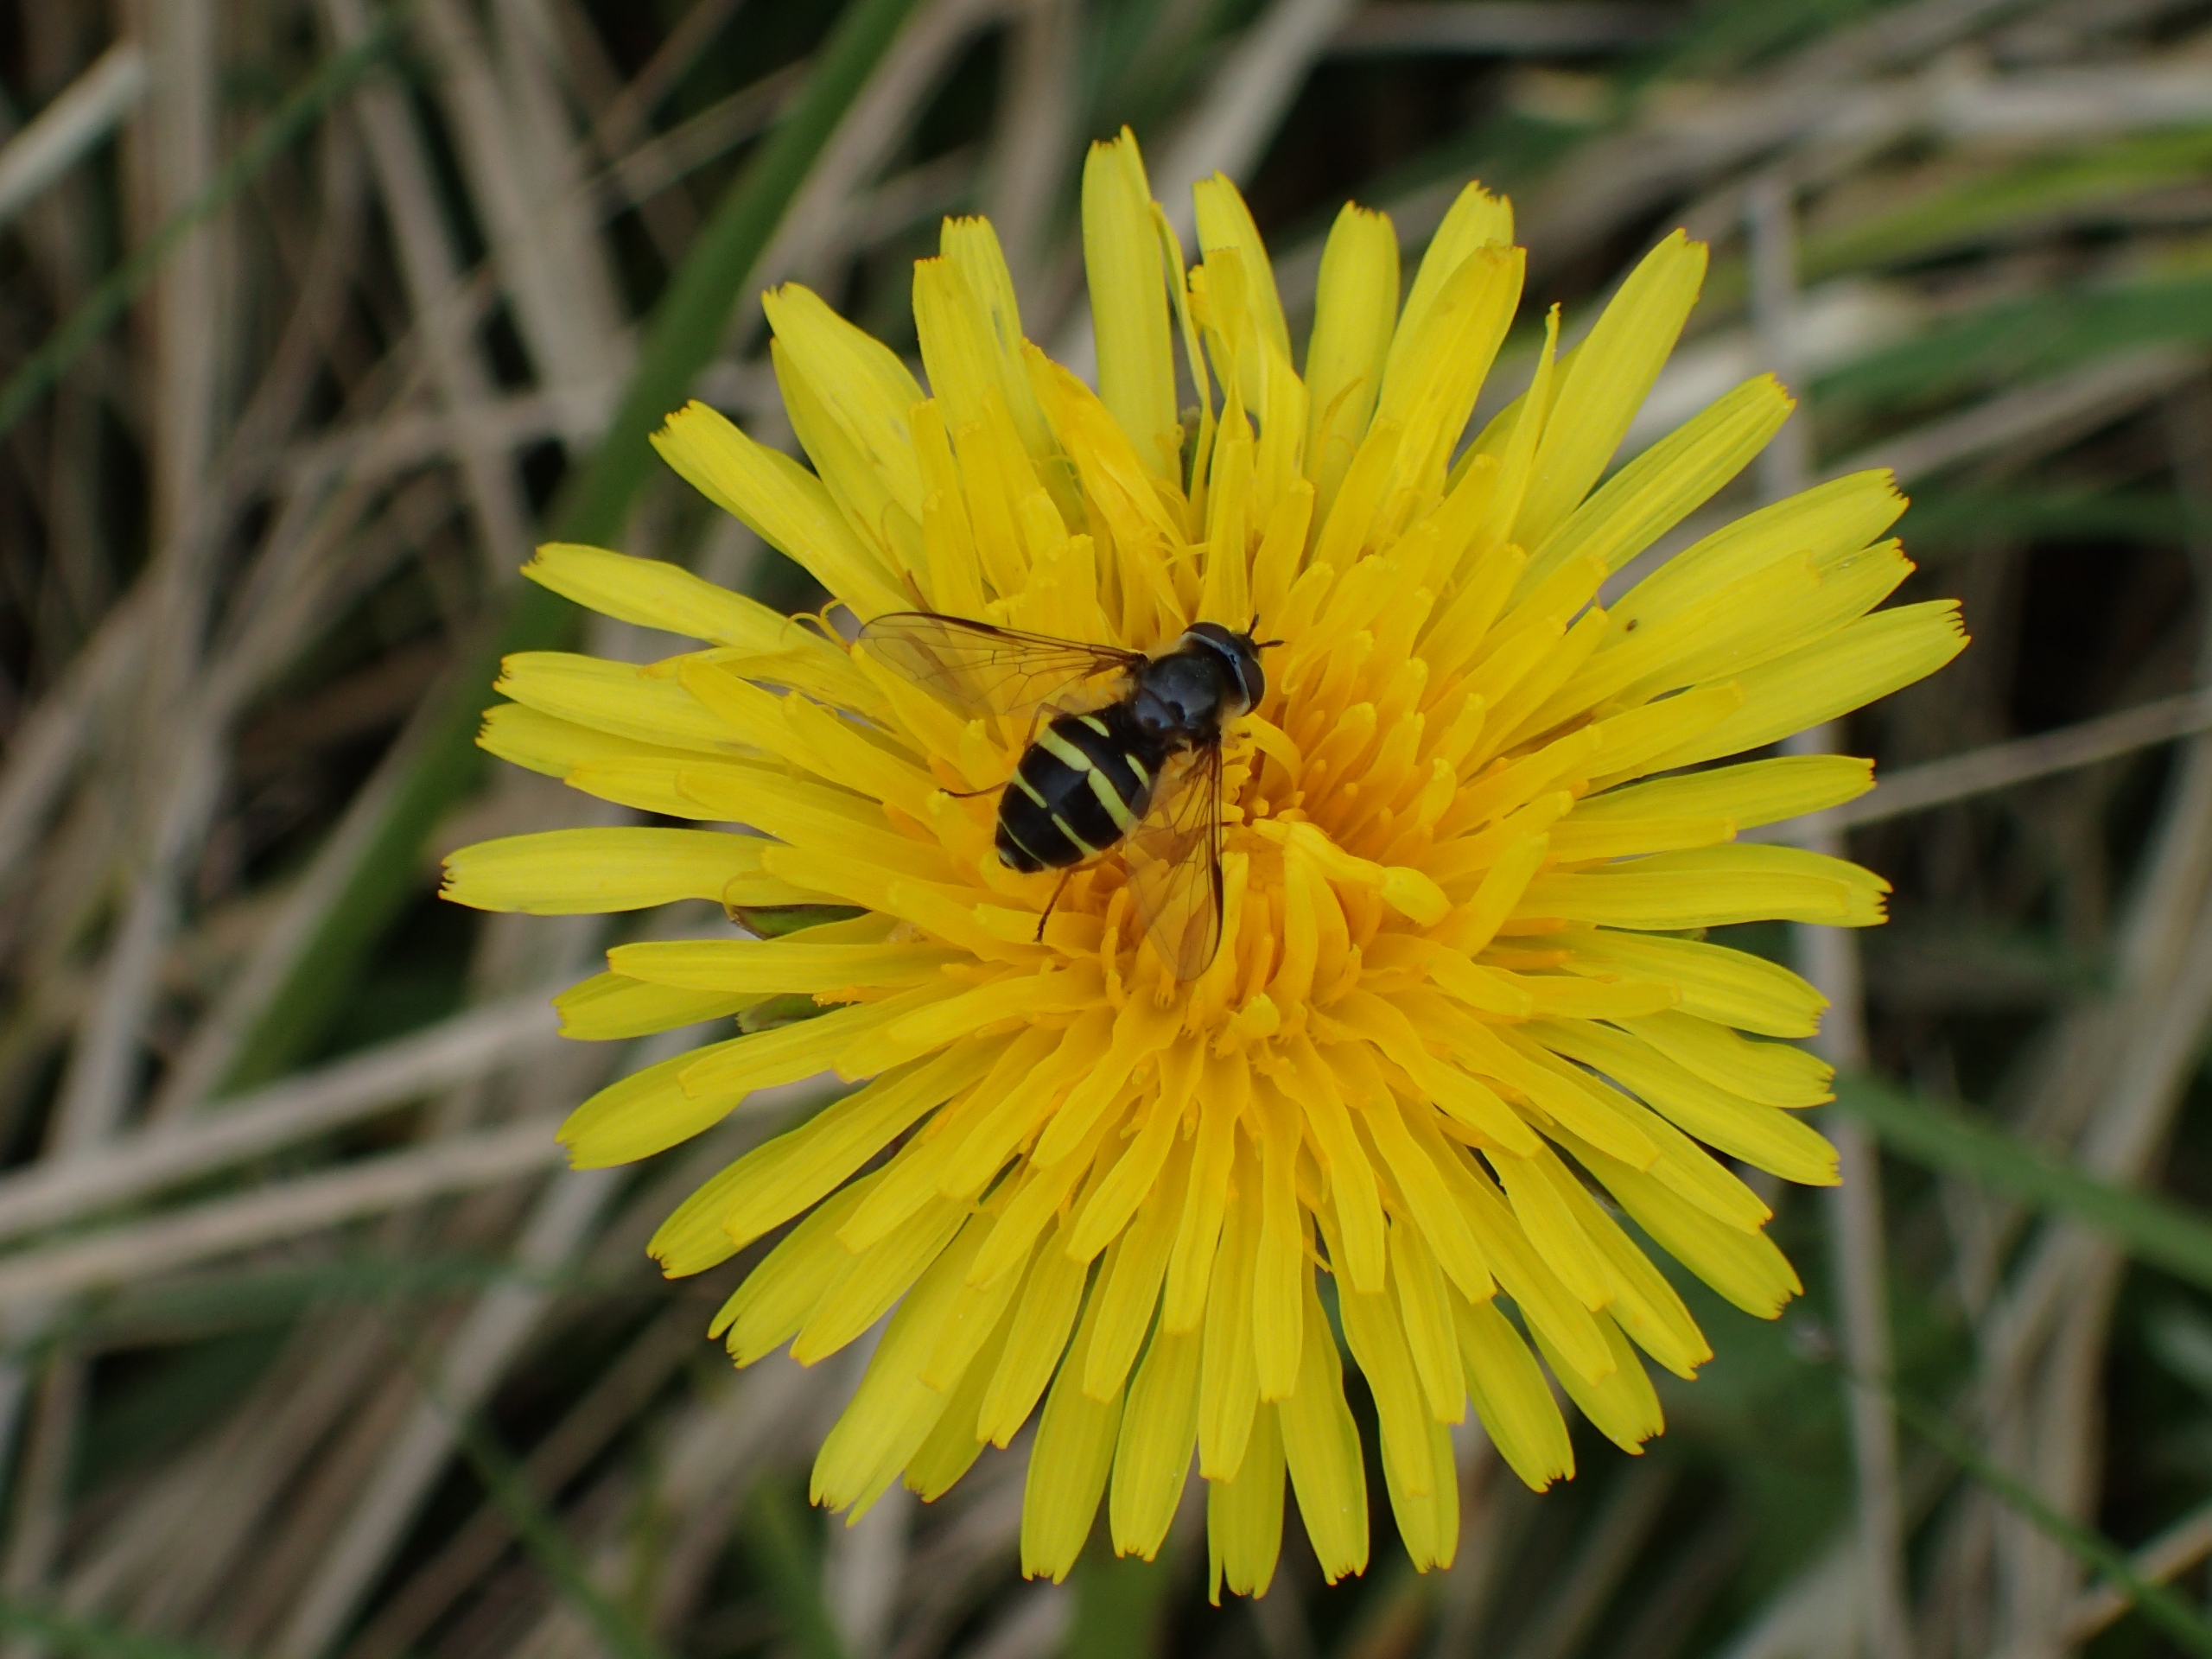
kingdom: Animalia
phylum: Arthropoda
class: Insecta
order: Diptera
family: Syrphidae
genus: Dasysyrphus
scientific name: Dasysyrphus tricinctus
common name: Bredbåndet skovsvirreflue
